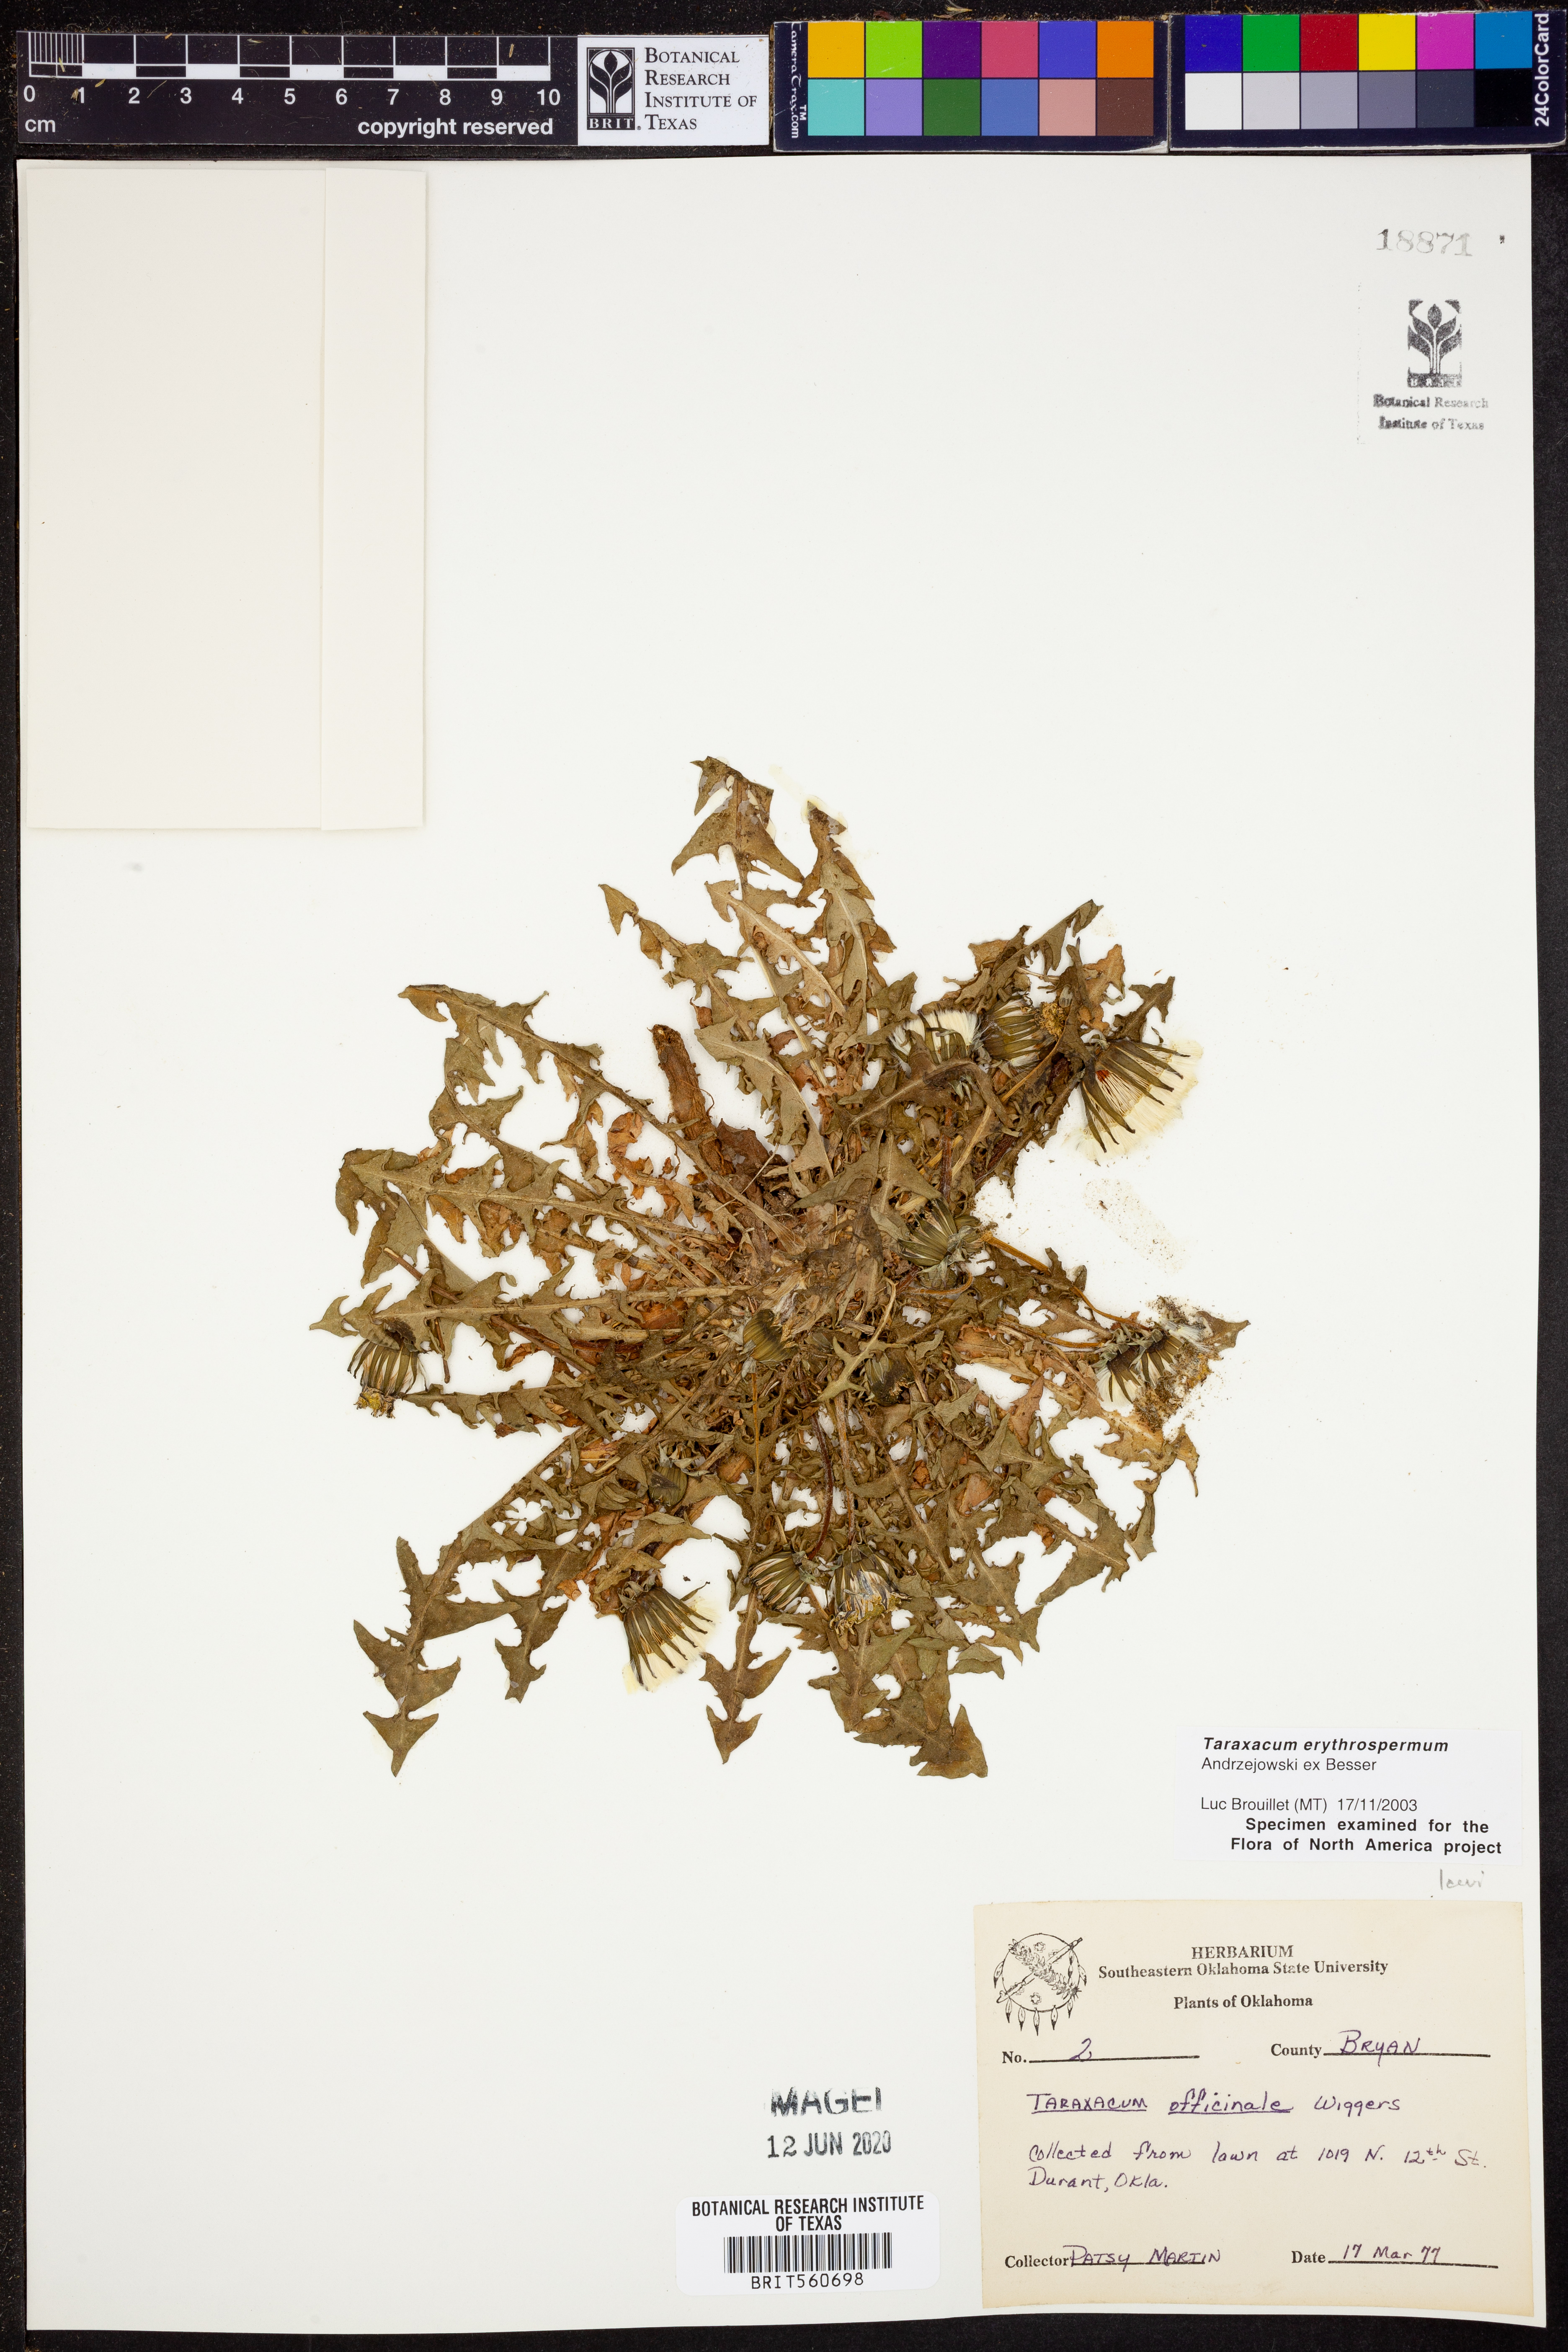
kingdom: Plantae
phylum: Tracheophyta
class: Magnoliopsida
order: Asterales
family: Asteraceae
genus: Taraxacum
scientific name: Taraxacum erythrospermum
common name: Rock dandelion
